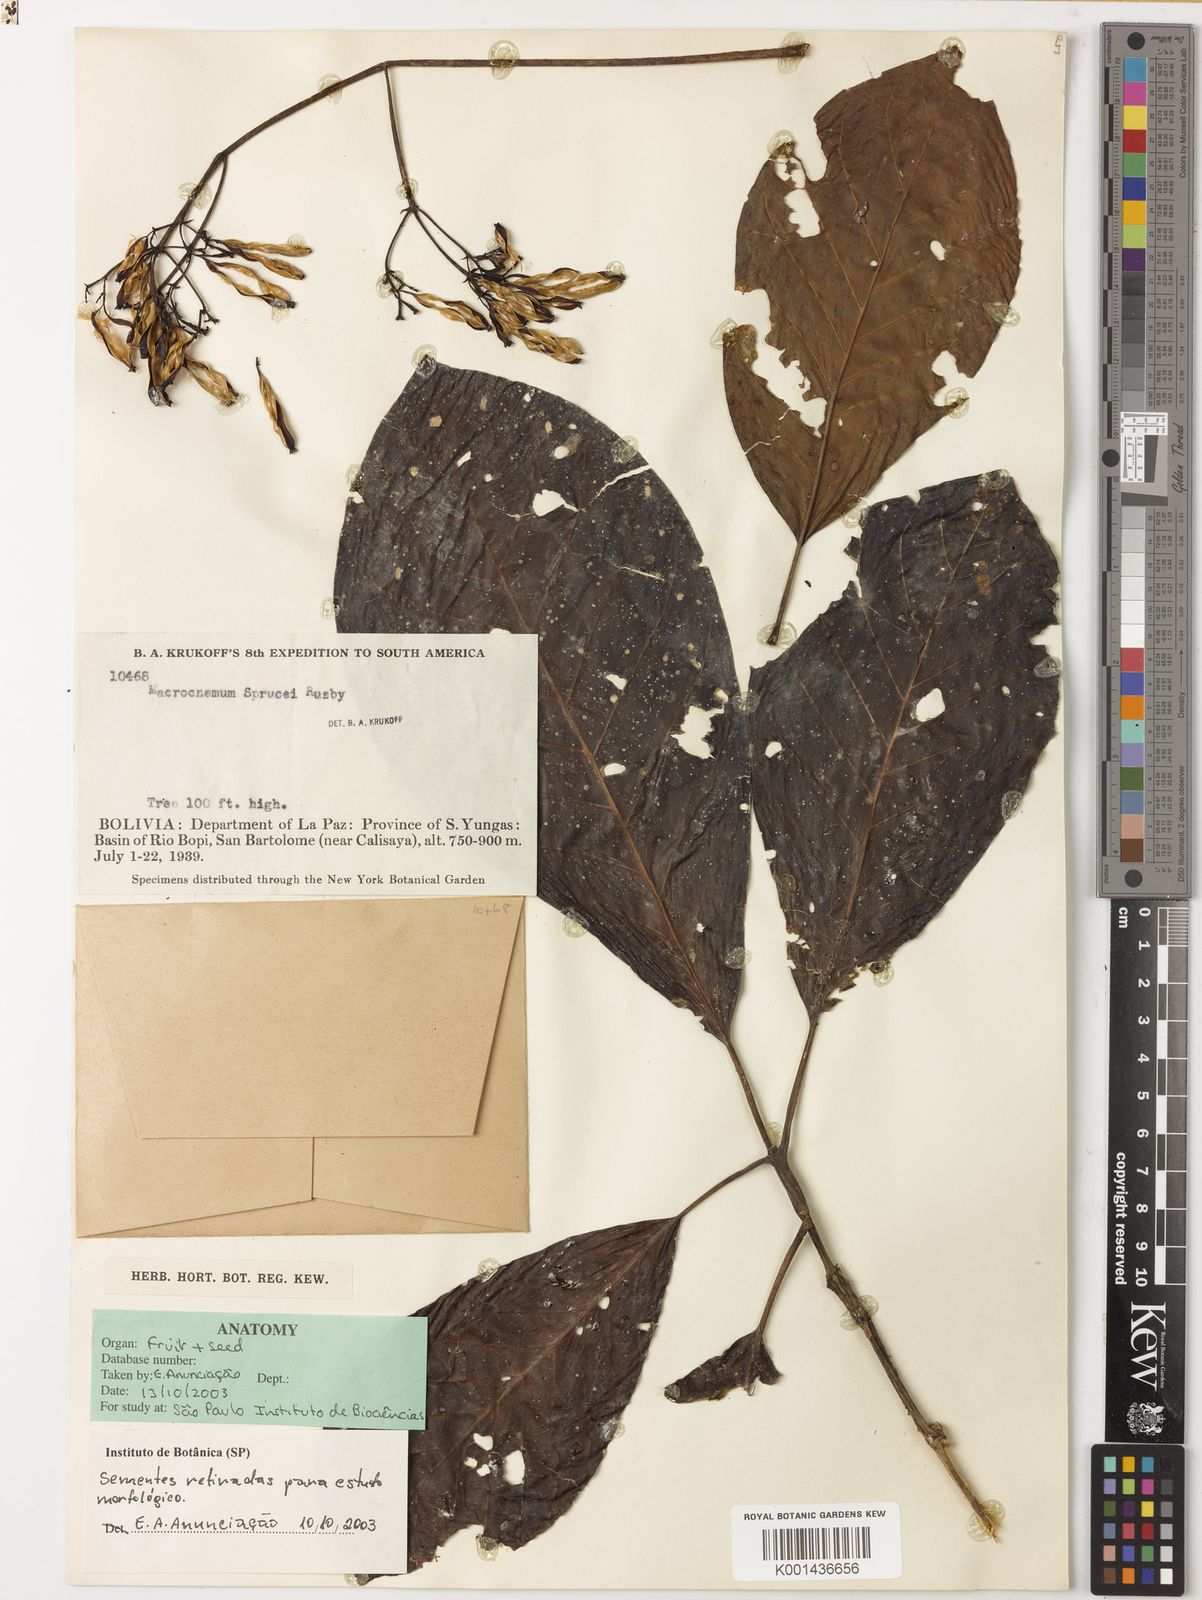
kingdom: Plantae
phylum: Tracheophyta
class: Magnoliopsida
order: Gentianales
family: Rubiaceae
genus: Macrocnemum
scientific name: Macrocnemum roseum
